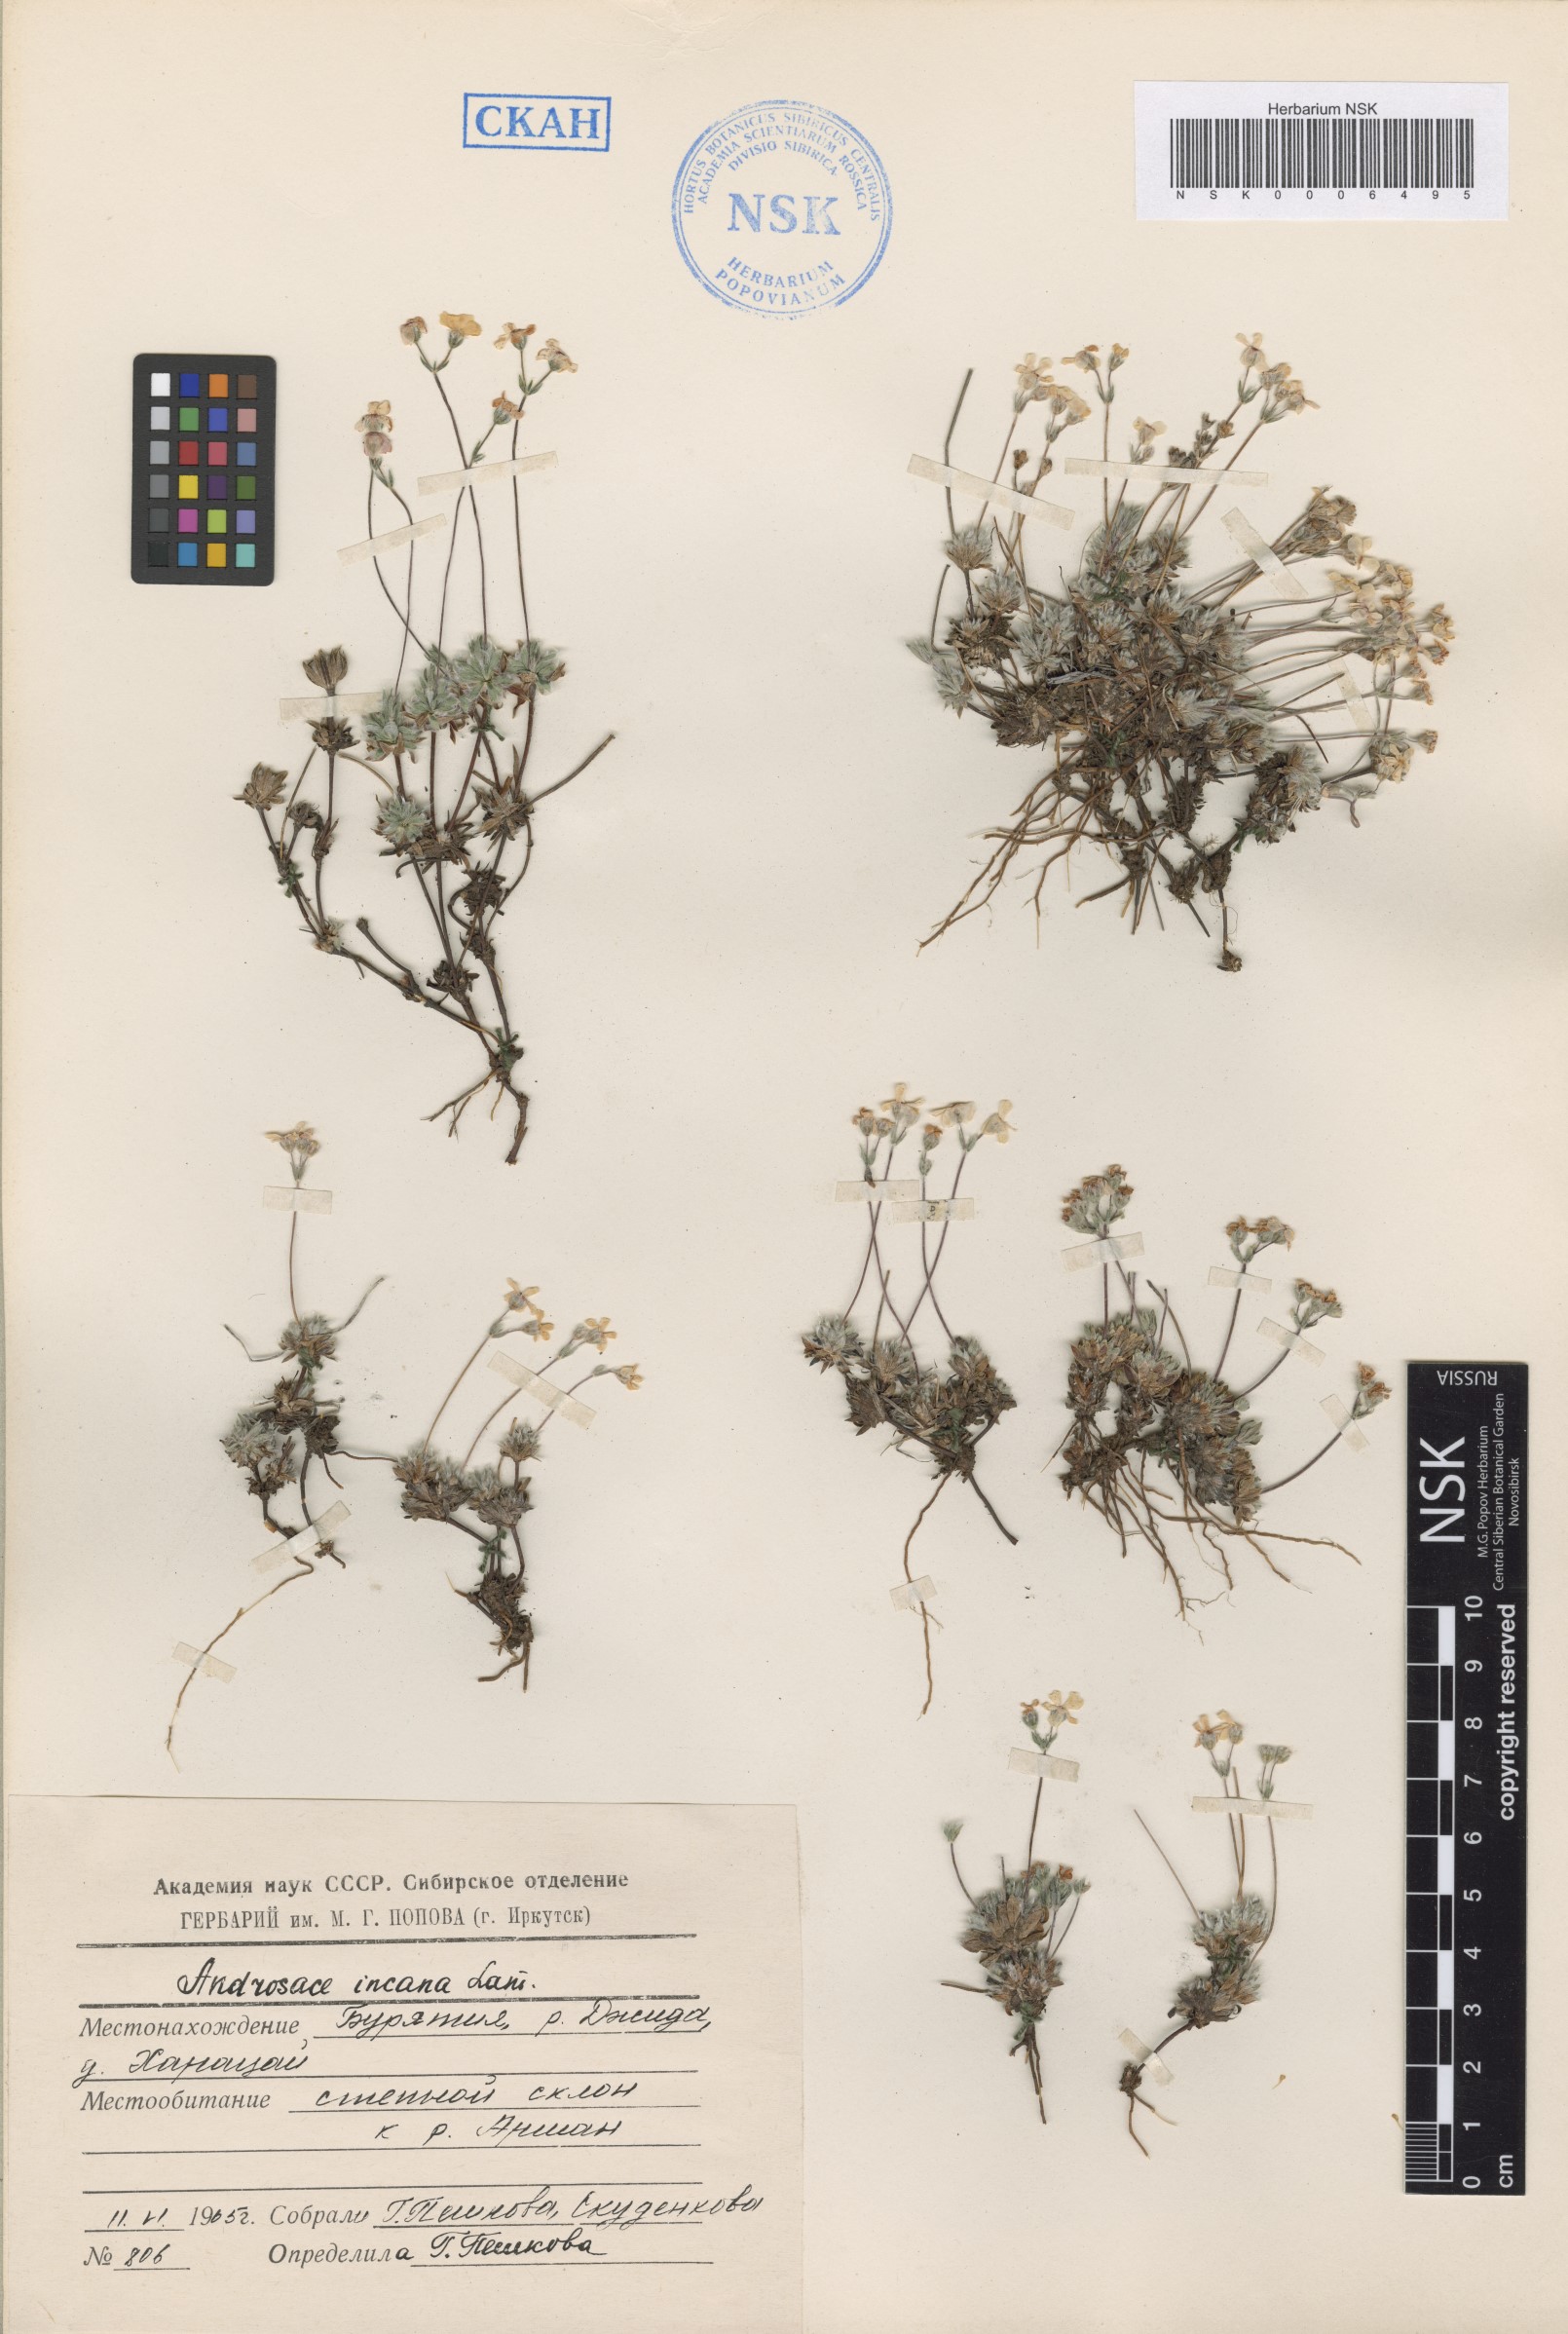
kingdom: Plantae
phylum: Tracheophyta
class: Magnoliopsida
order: Ericales
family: Primulaceae
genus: Androsace
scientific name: Androsace incana
